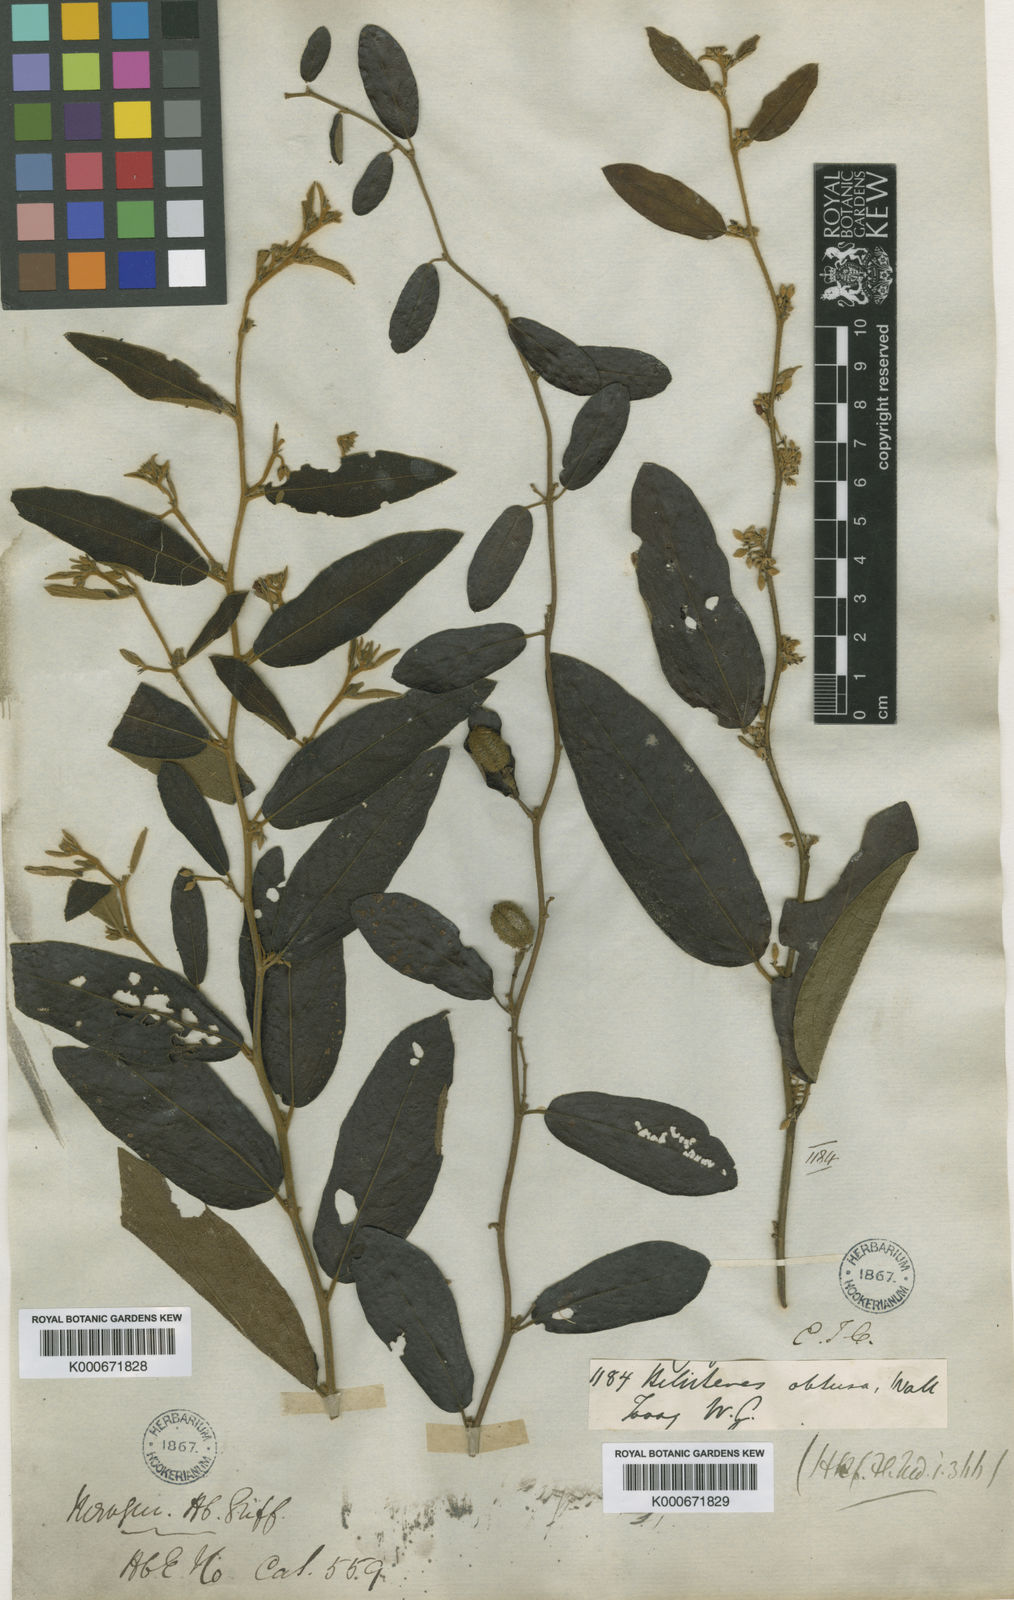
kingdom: Plantae
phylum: Tracheophyta
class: Magnoliopsida
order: Malvales
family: Malvaceae
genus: Helicteres
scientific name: Helicteres
